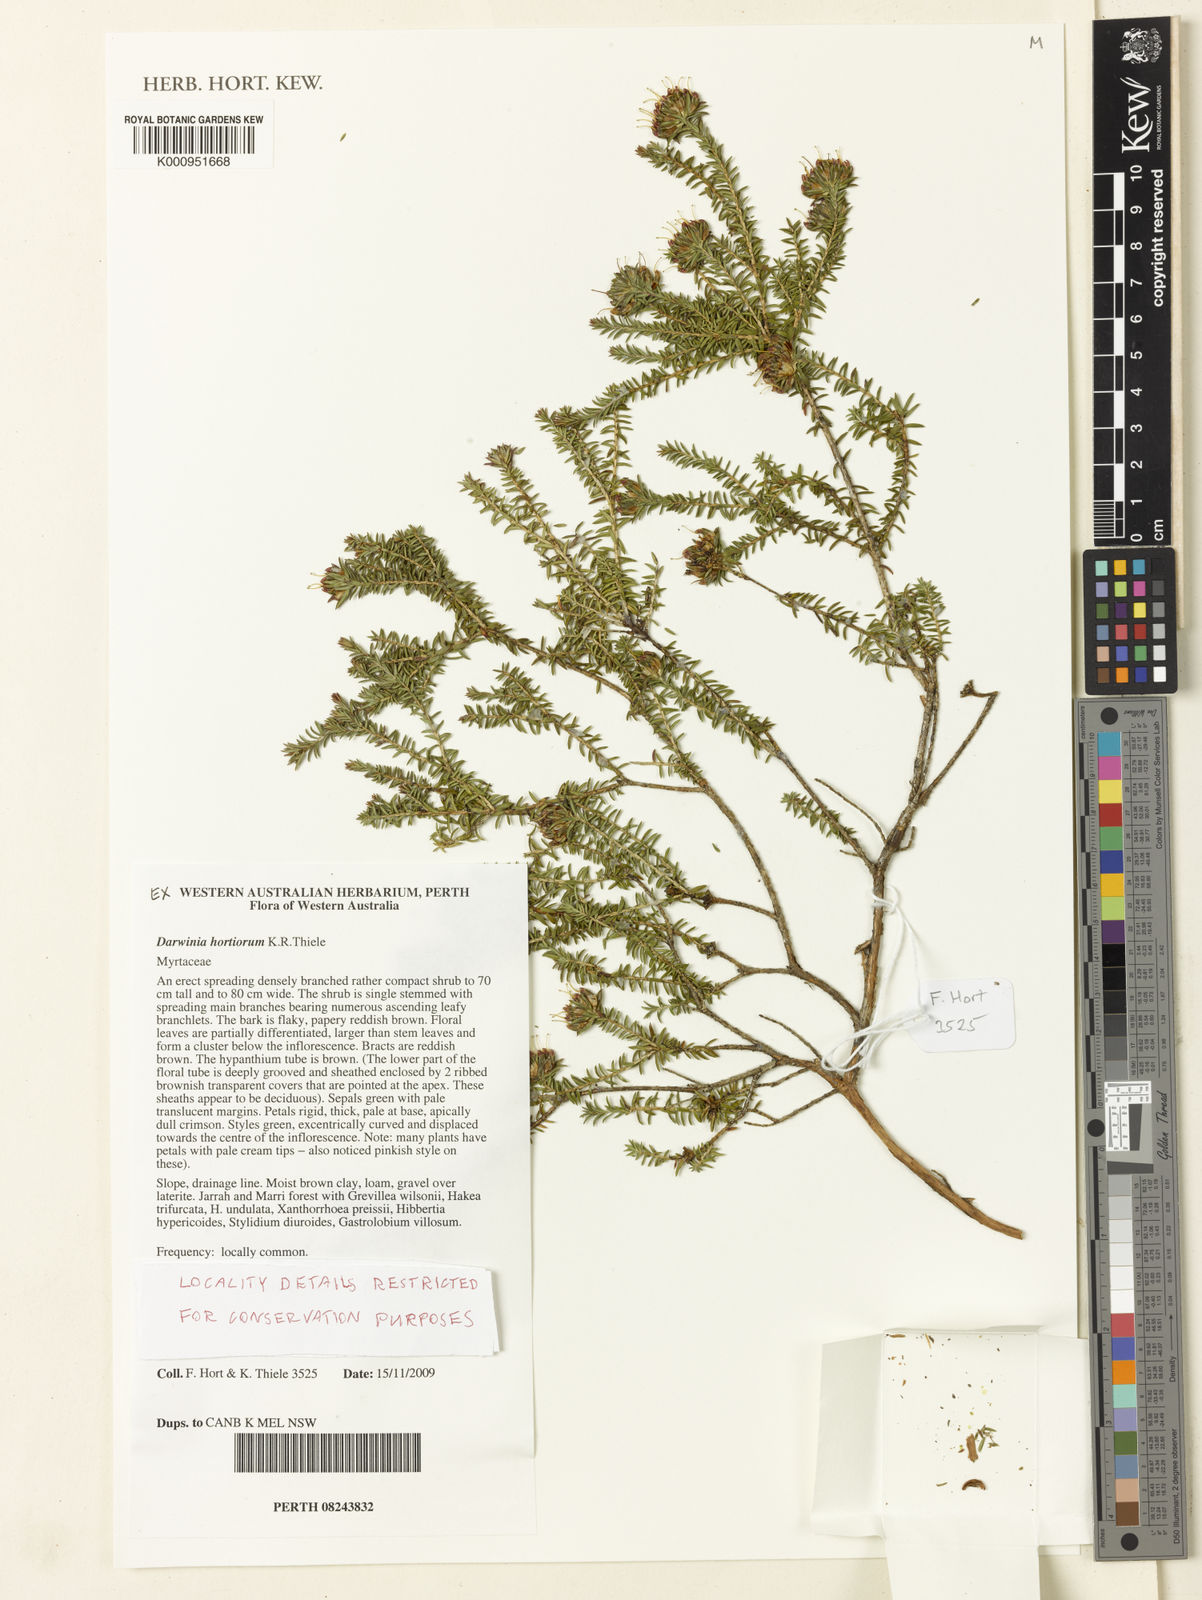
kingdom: Plantae
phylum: Tracheophyta
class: Magnoliopsida
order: Myrtales
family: Myrtaceae
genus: Darwinia
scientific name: Darwinia hortiorum
